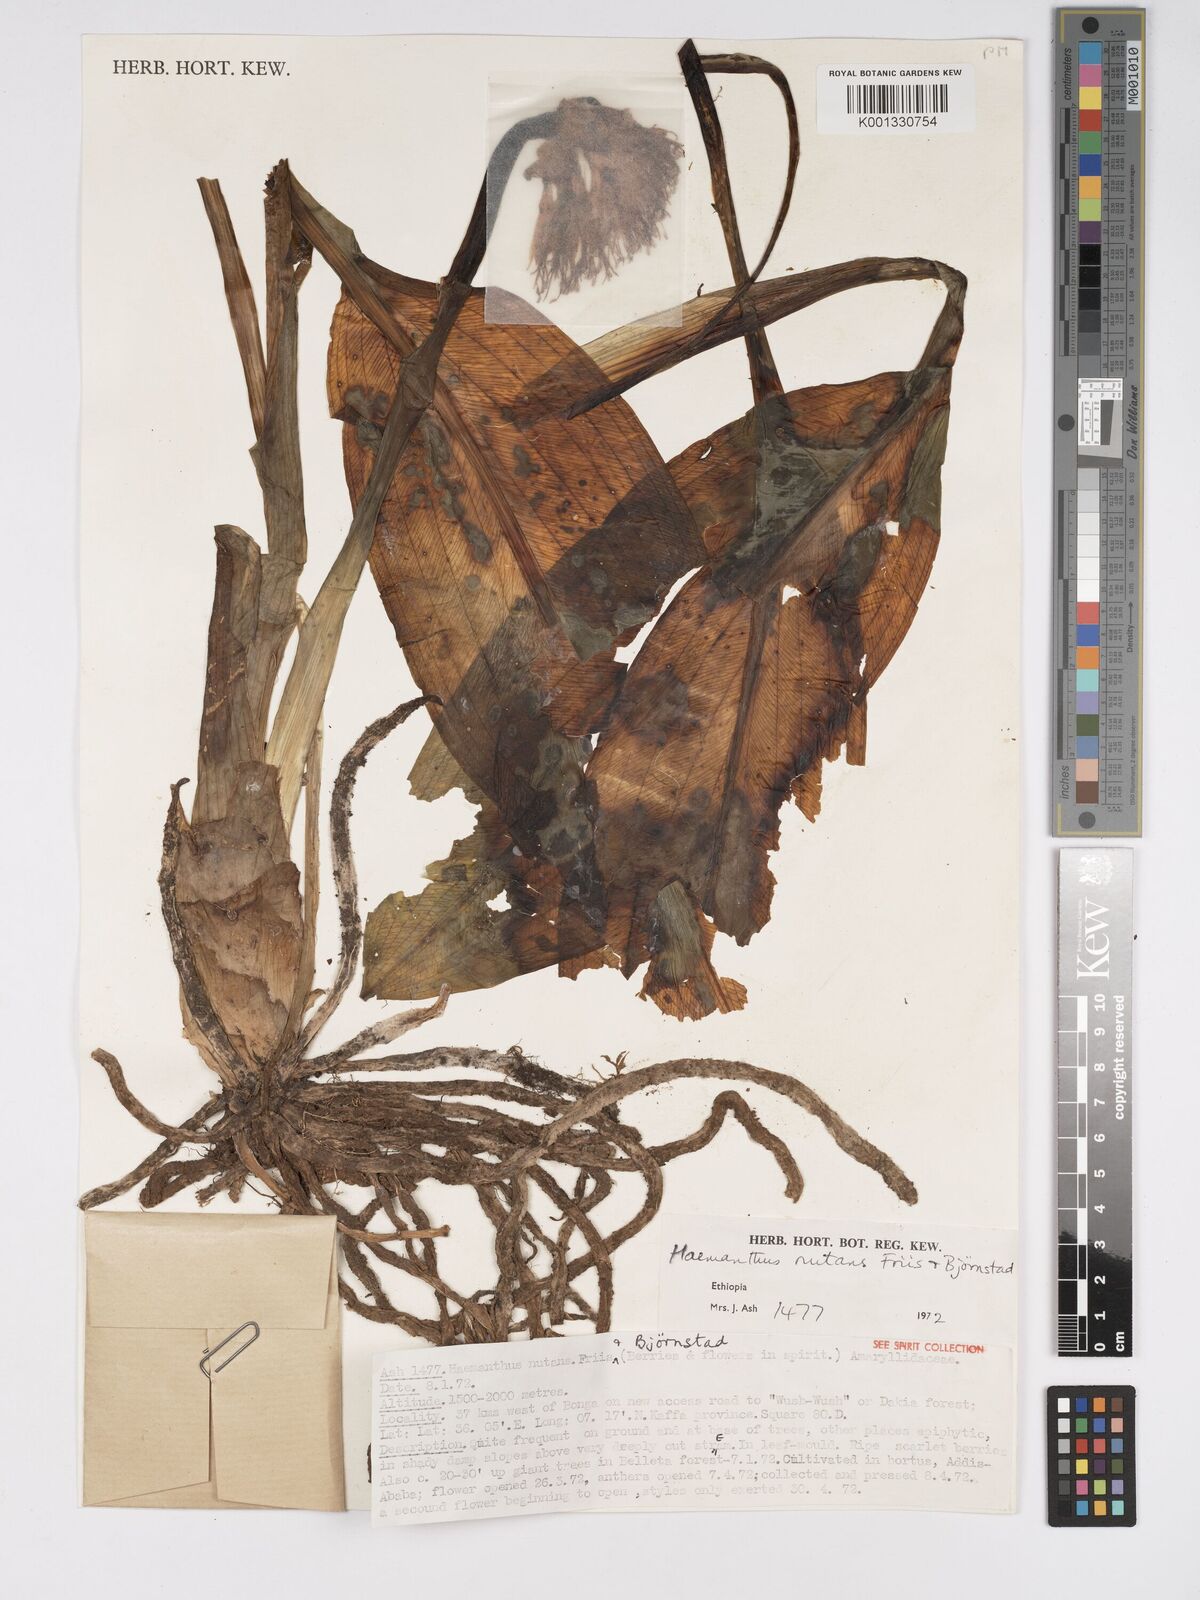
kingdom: Plantae
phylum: Tracheophyta
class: Liliopsida
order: Asparagales
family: Amaryllidaceae
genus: Scadoxus
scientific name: Scadoxus nutans
